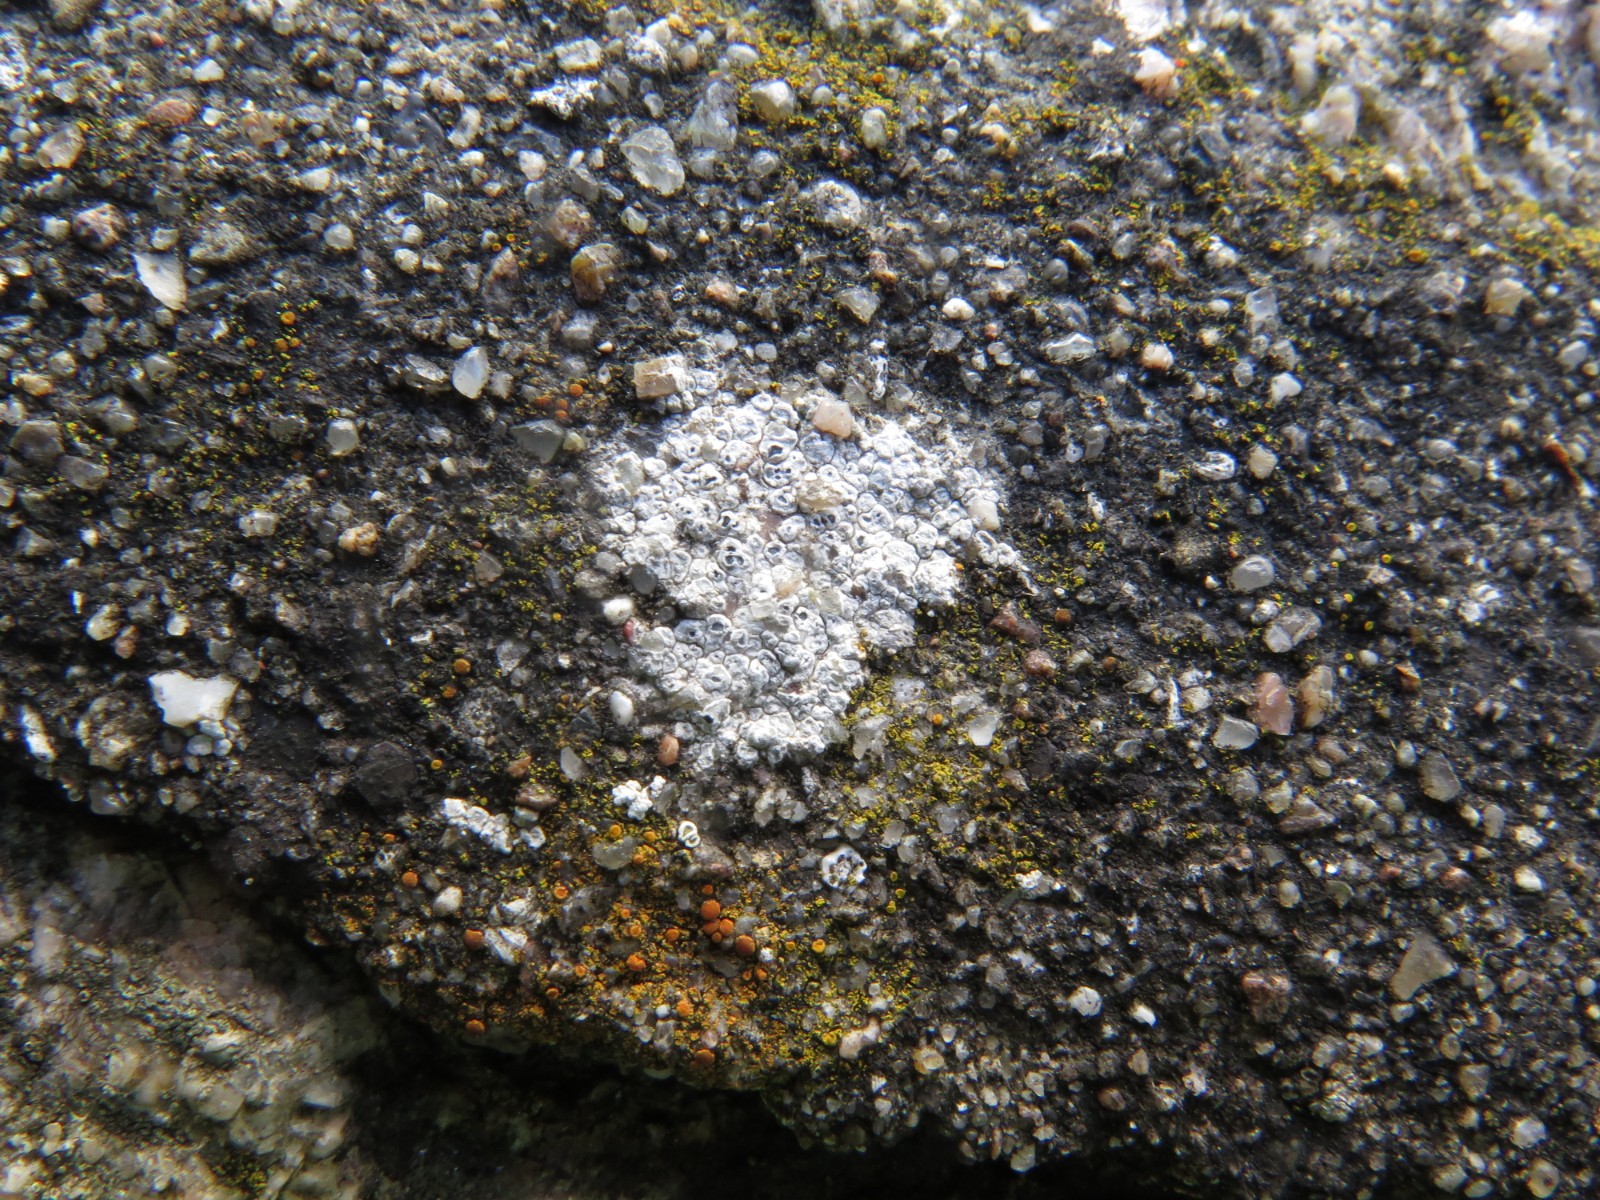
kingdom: Fungi
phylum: Ascomycota
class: Lecanoromycetes
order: Pertusariales
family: Megasporaceae
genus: Circinaria
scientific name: Circinaria contorta
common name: indviklet hulskivelav
